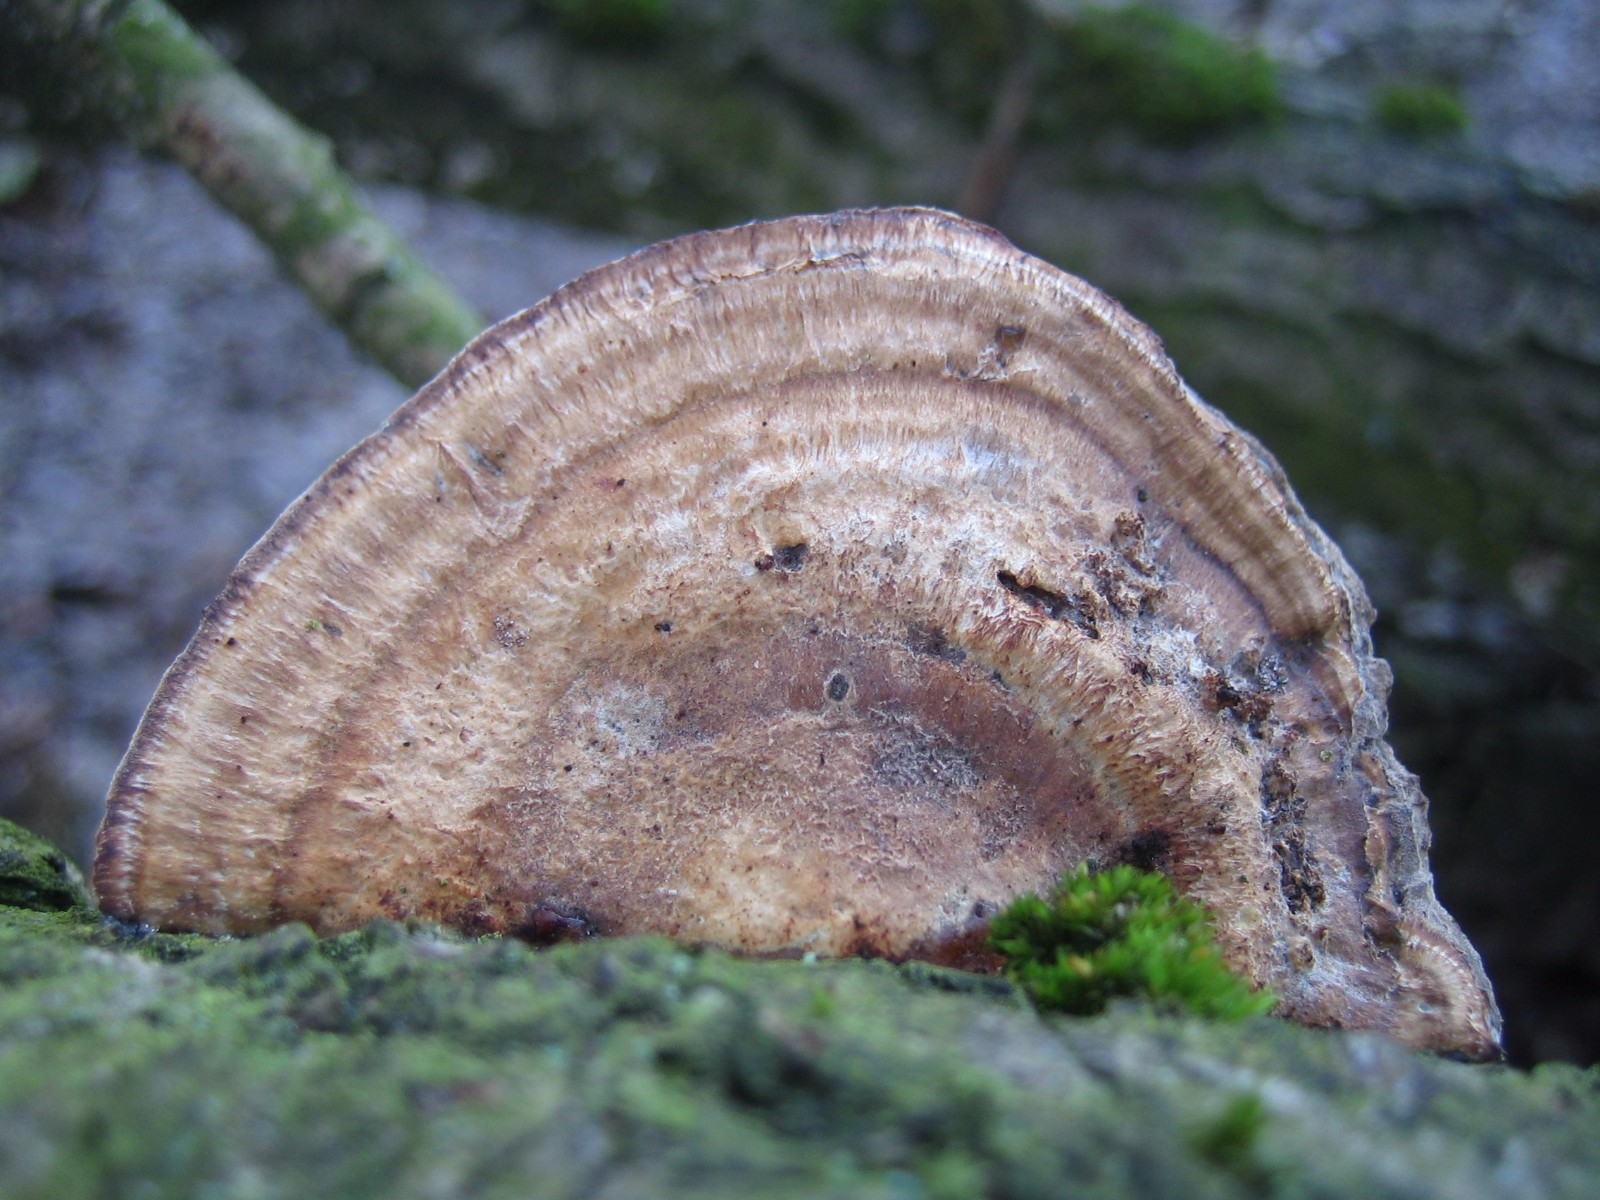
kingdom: Fungi
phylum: Basidiomycota
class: Agaricomycetes
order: Polyporales
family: Polyporaceae
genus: Daedaleopsis
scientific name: Daedaleopsis confragosa
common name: rødmende læderporesvamp
